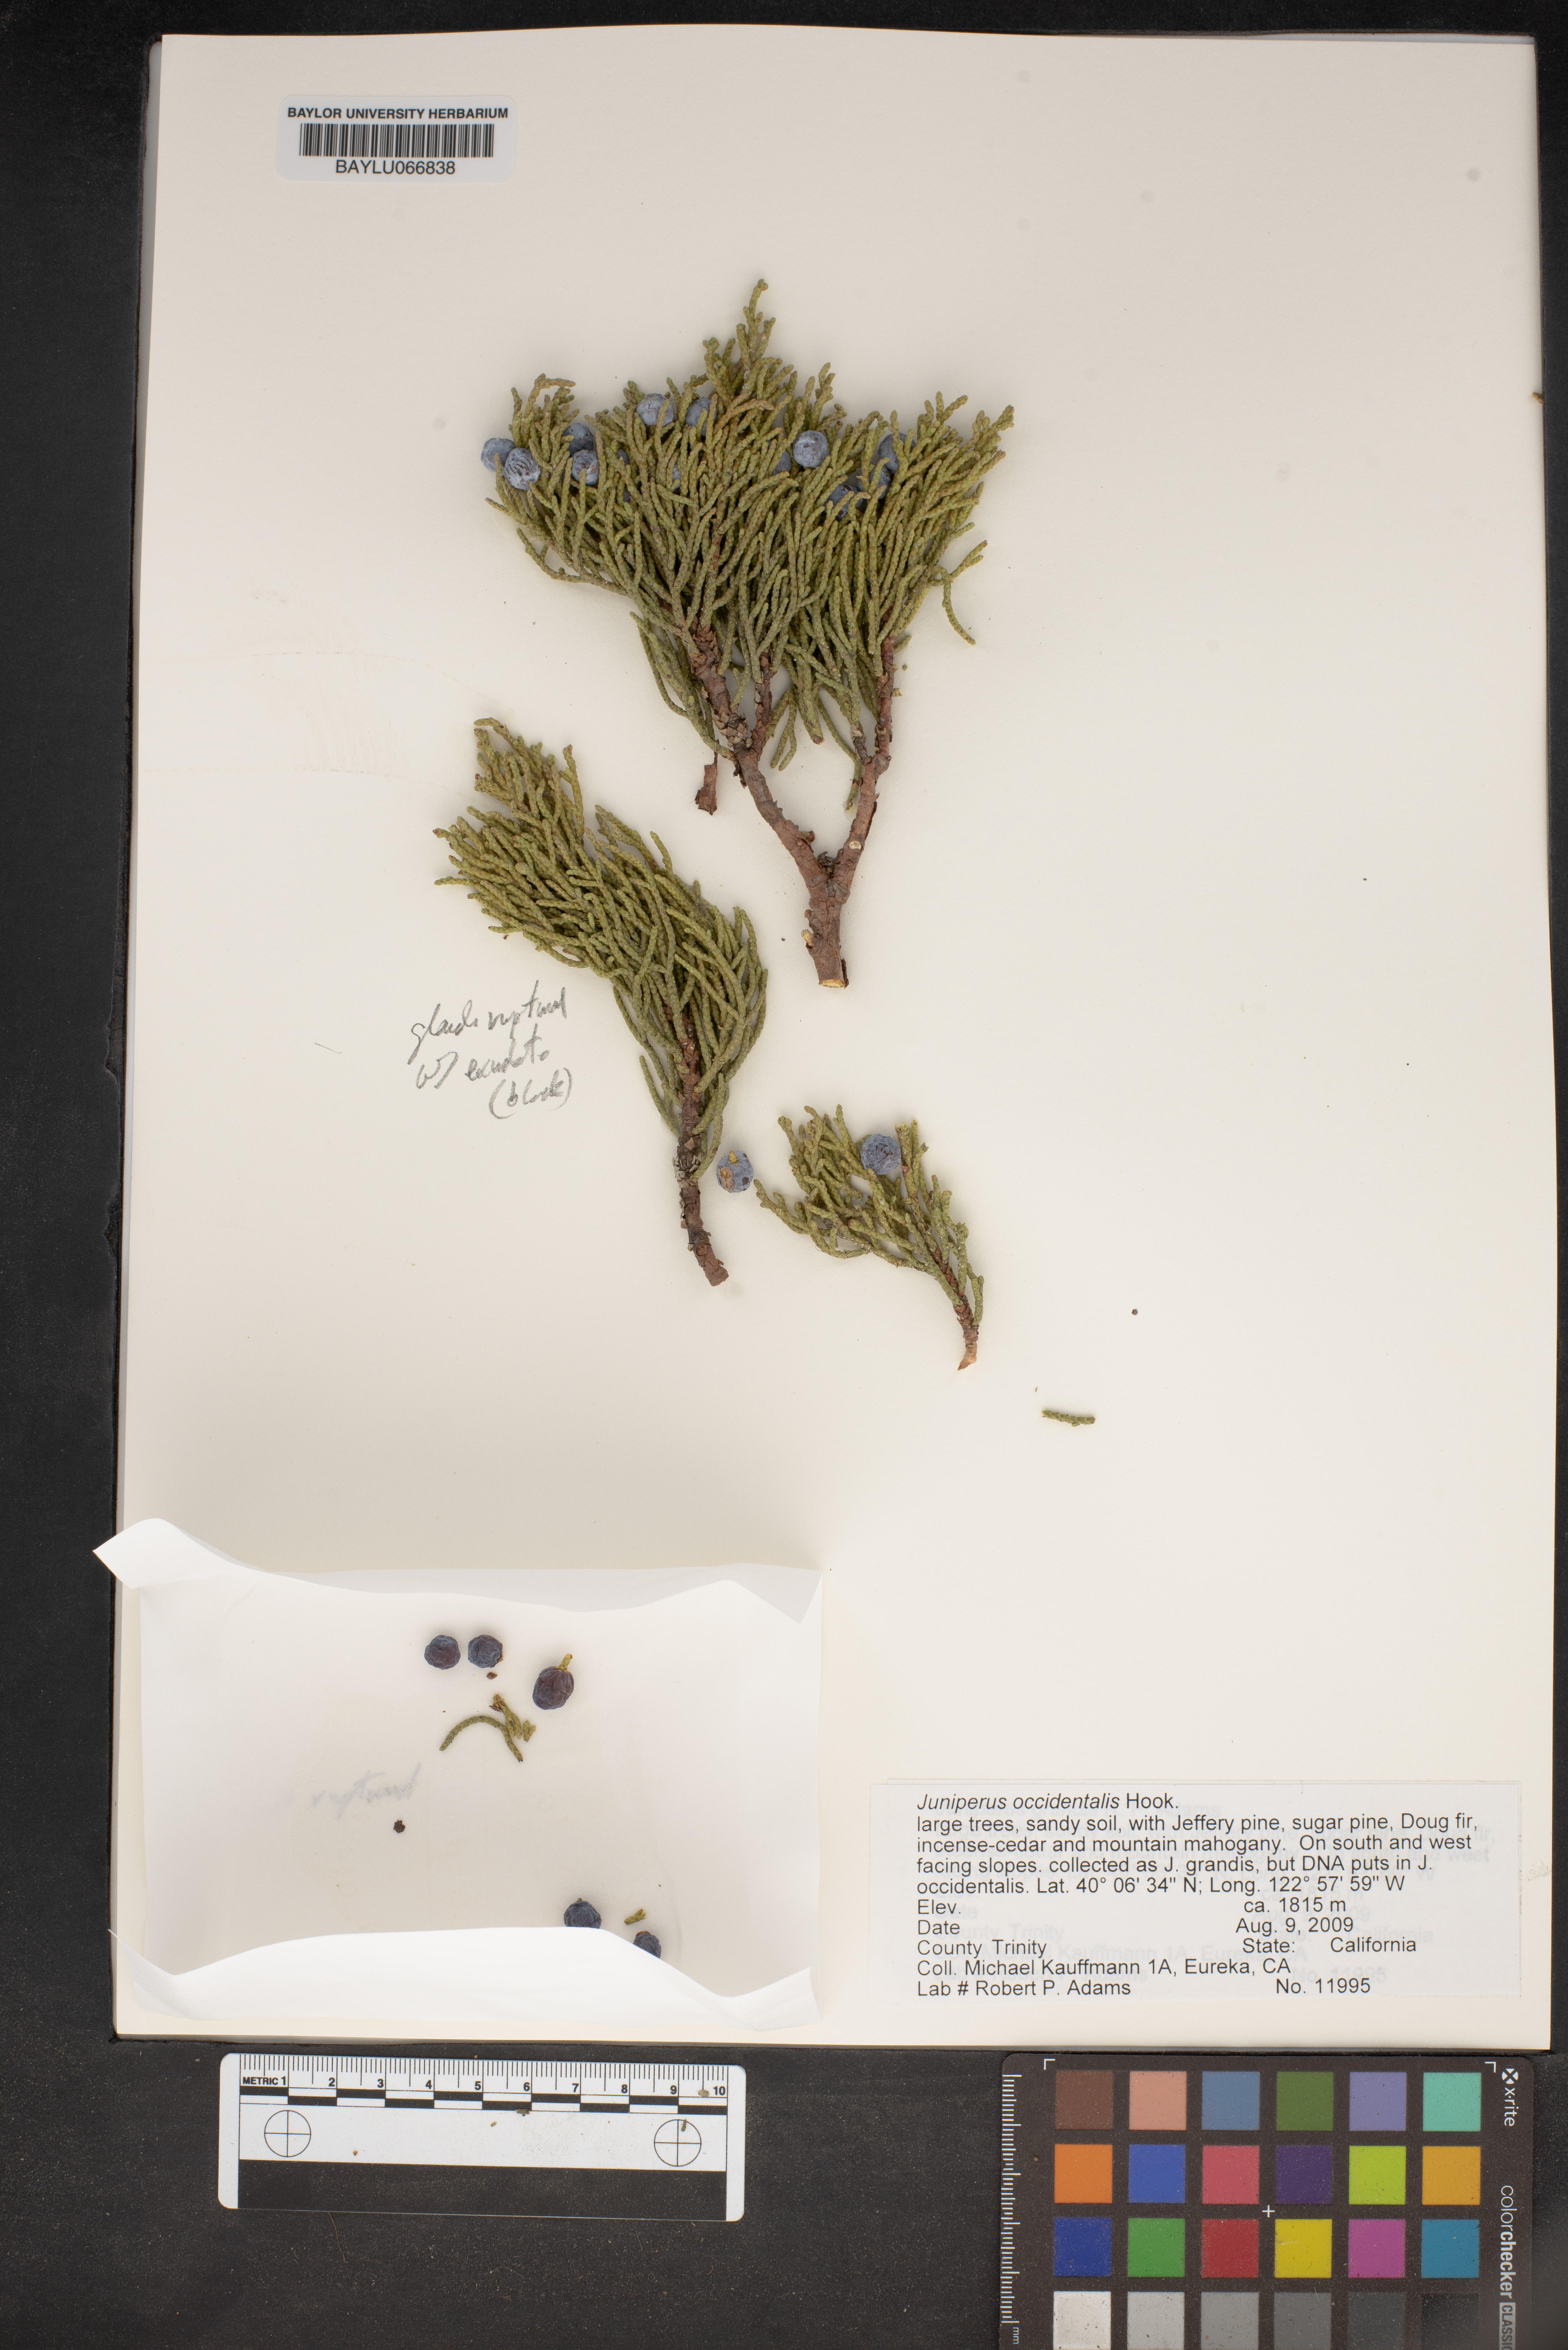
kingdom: Plantae
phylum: Tracheophyta
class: Pinopsida
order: Pinales
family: Cupressaceae
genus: Juniperus
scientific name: Juniperus occidentalis
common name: Western juniper
